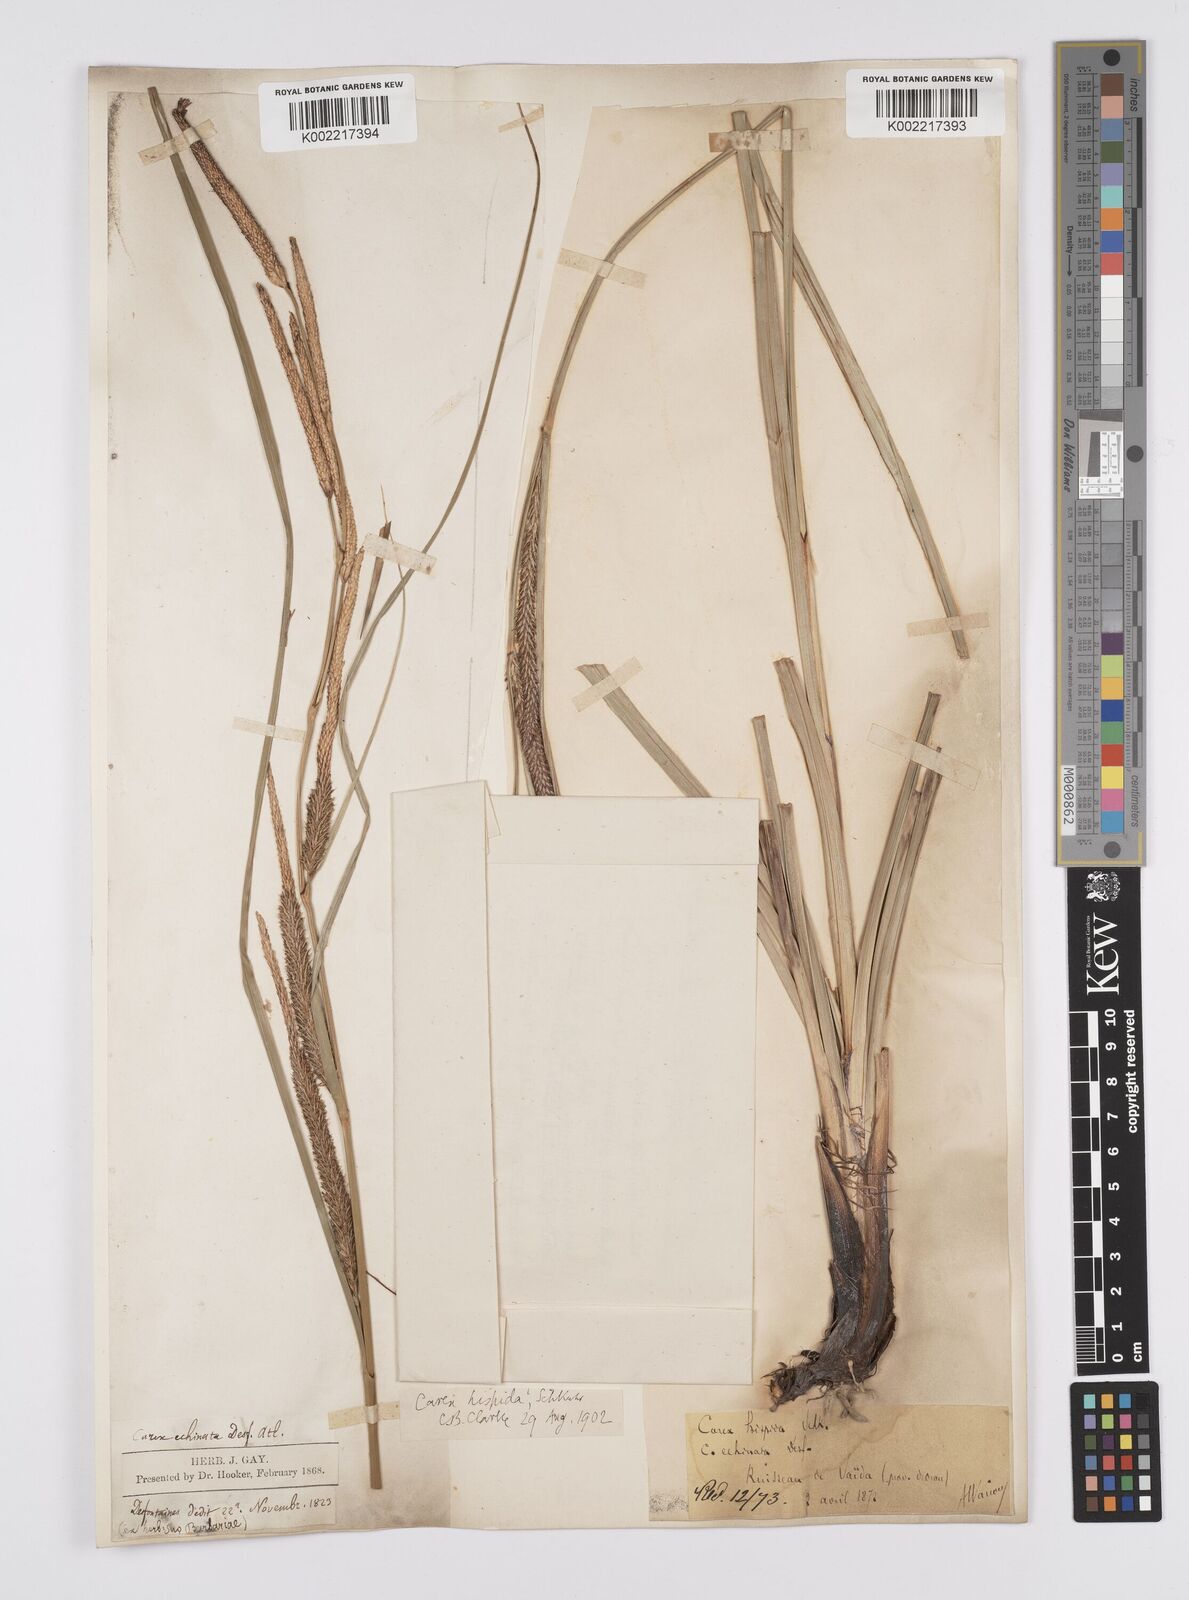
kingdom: Plantae
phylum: Tracheophyta
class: Liliopsida
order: Poales
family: Cyperaceae
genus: Carex
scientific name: Carex hispida
